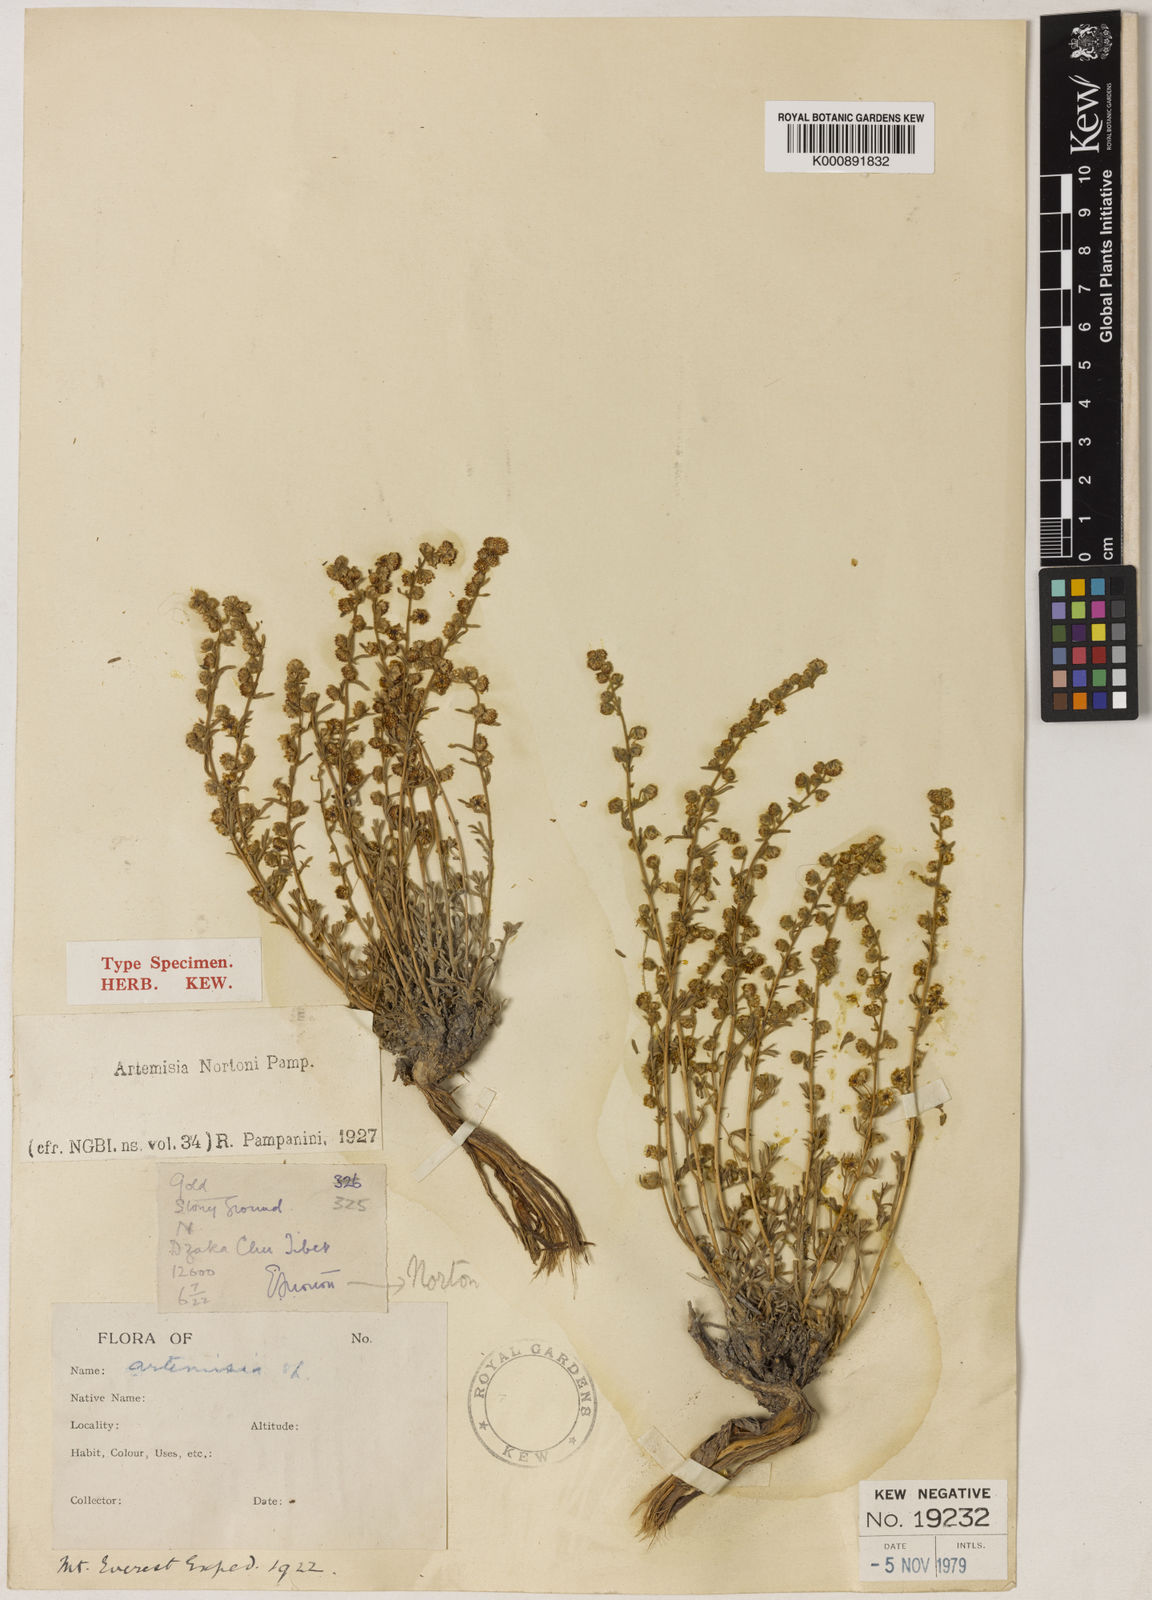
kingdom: Plantae
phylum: Tracheophyta
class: Magnoliopsida
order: Asterales
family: Asteraceae
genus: Artemisia
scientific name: Artemisia nortonii
